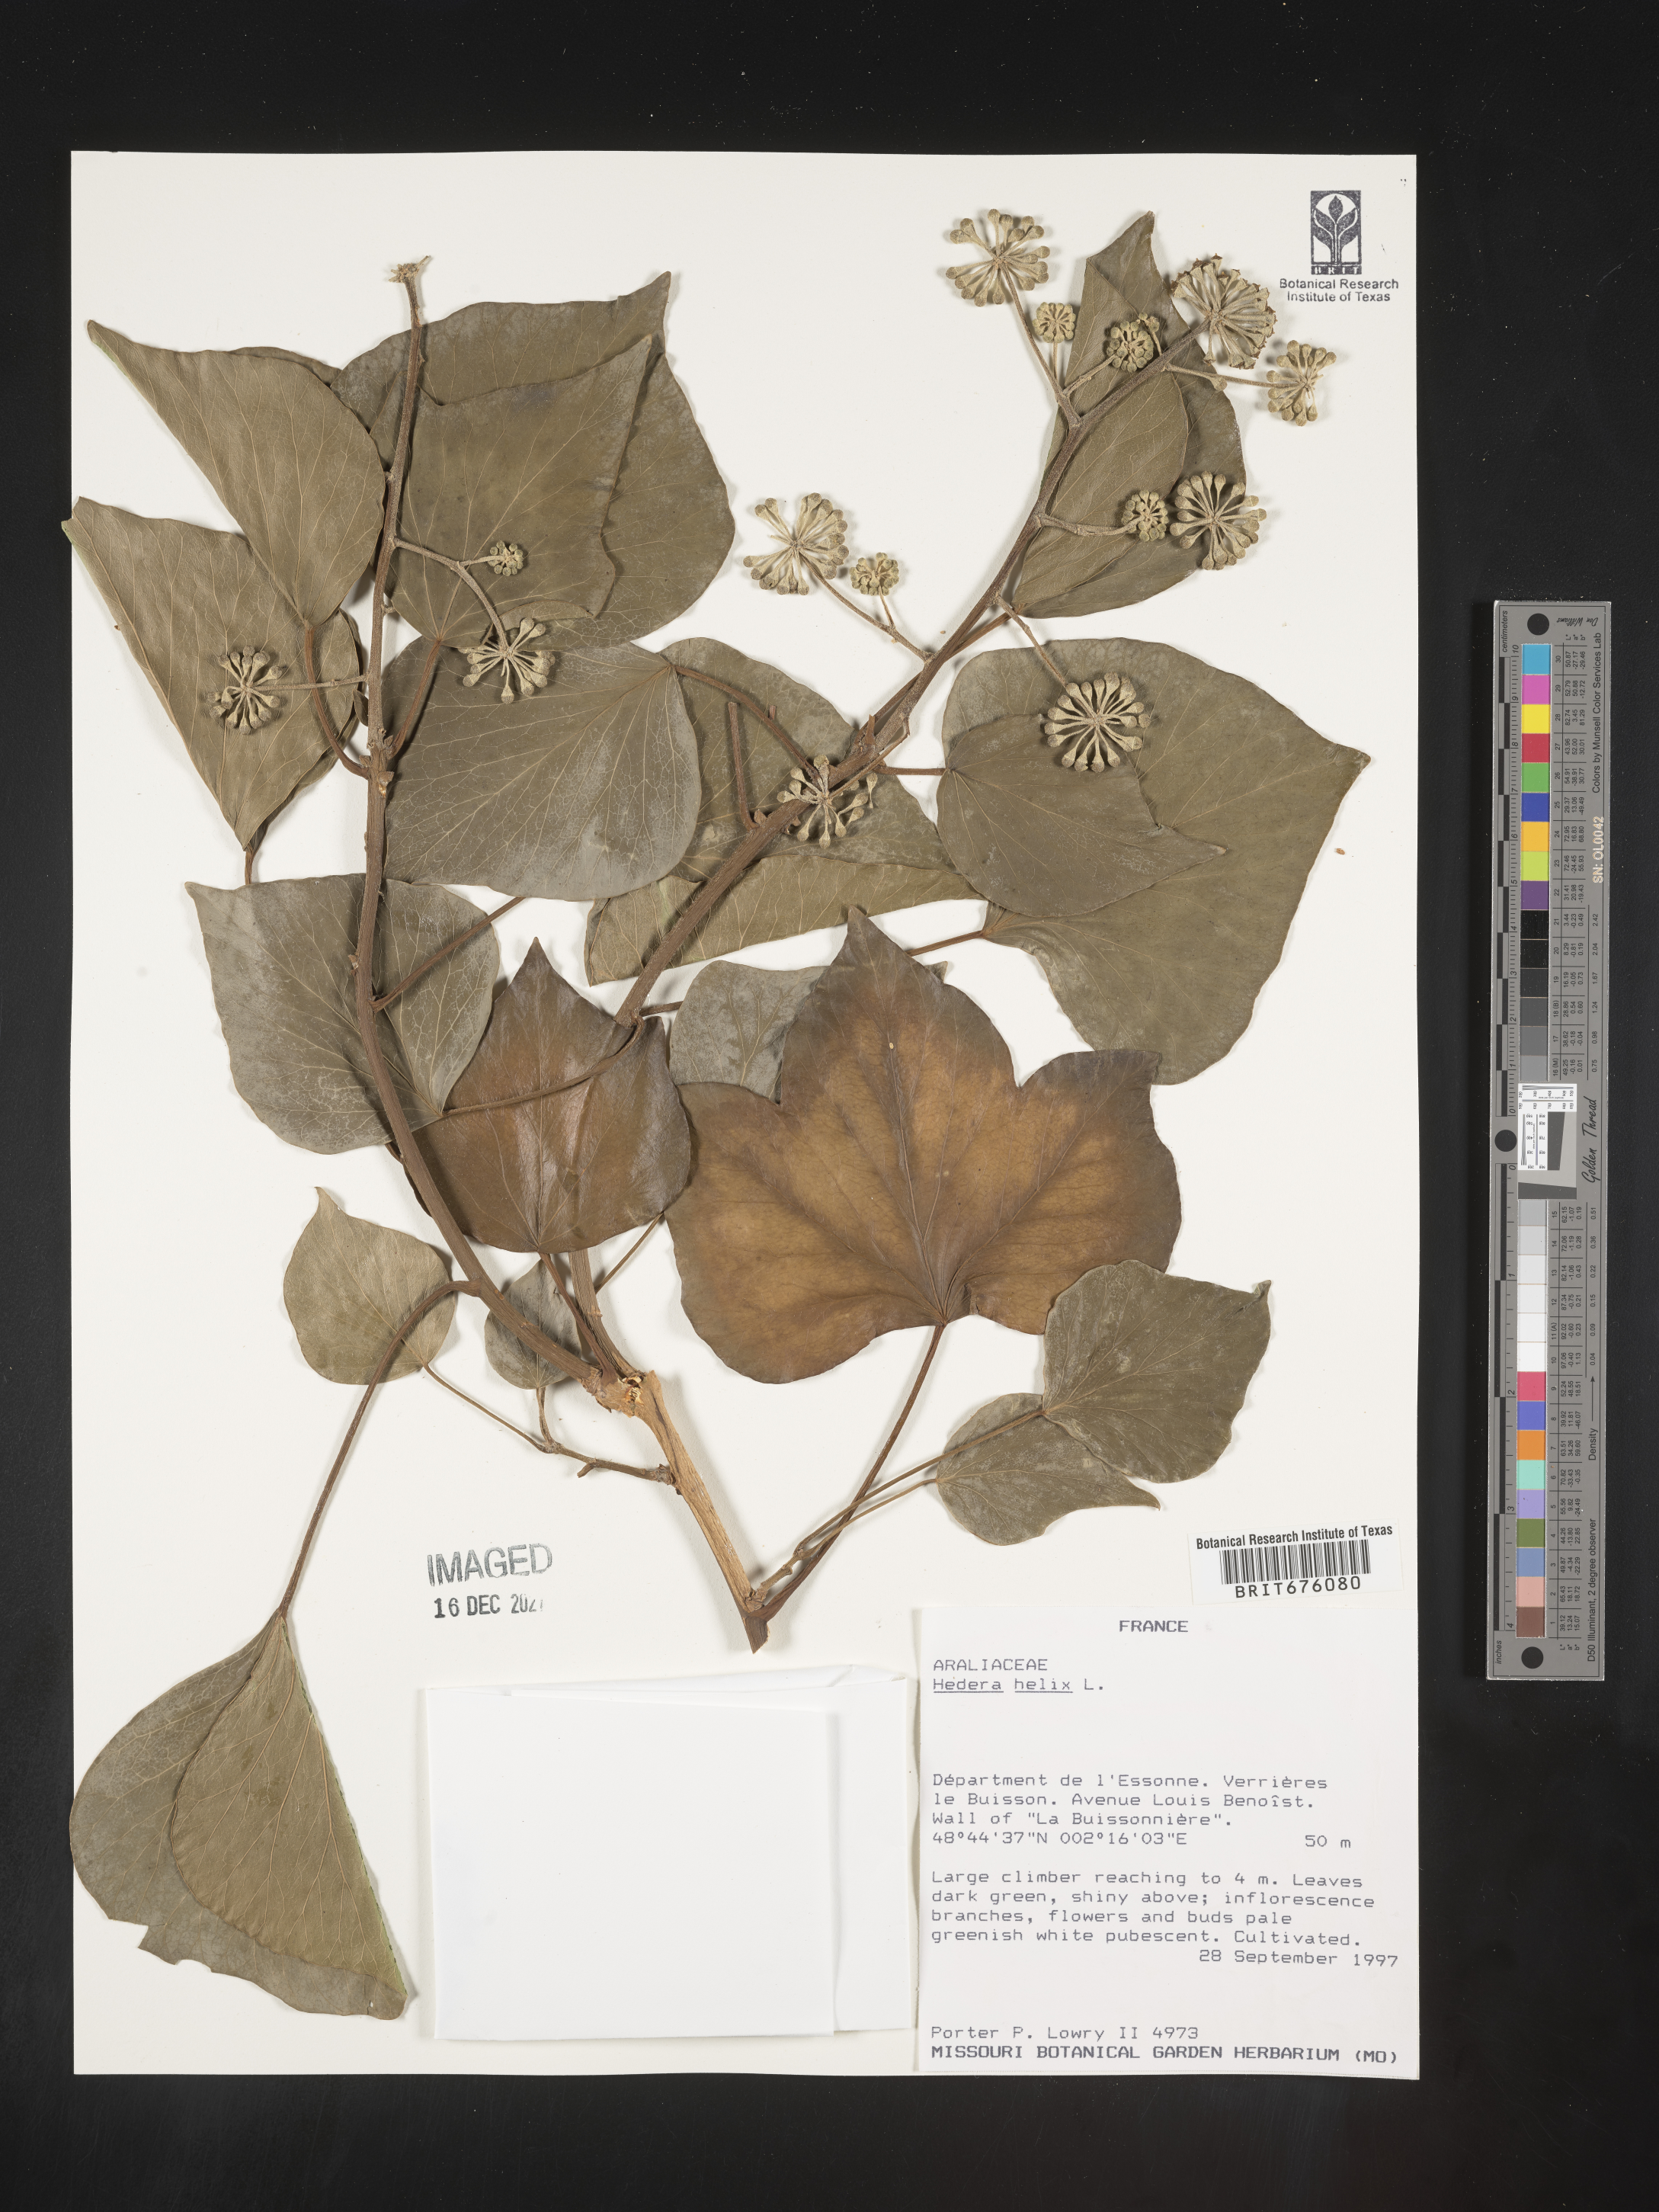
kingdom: Plantae
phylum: Tracheophyta
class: Magnoliopsida
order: Apiales
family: Araliaceae
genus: Hedera
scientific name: Hedera
